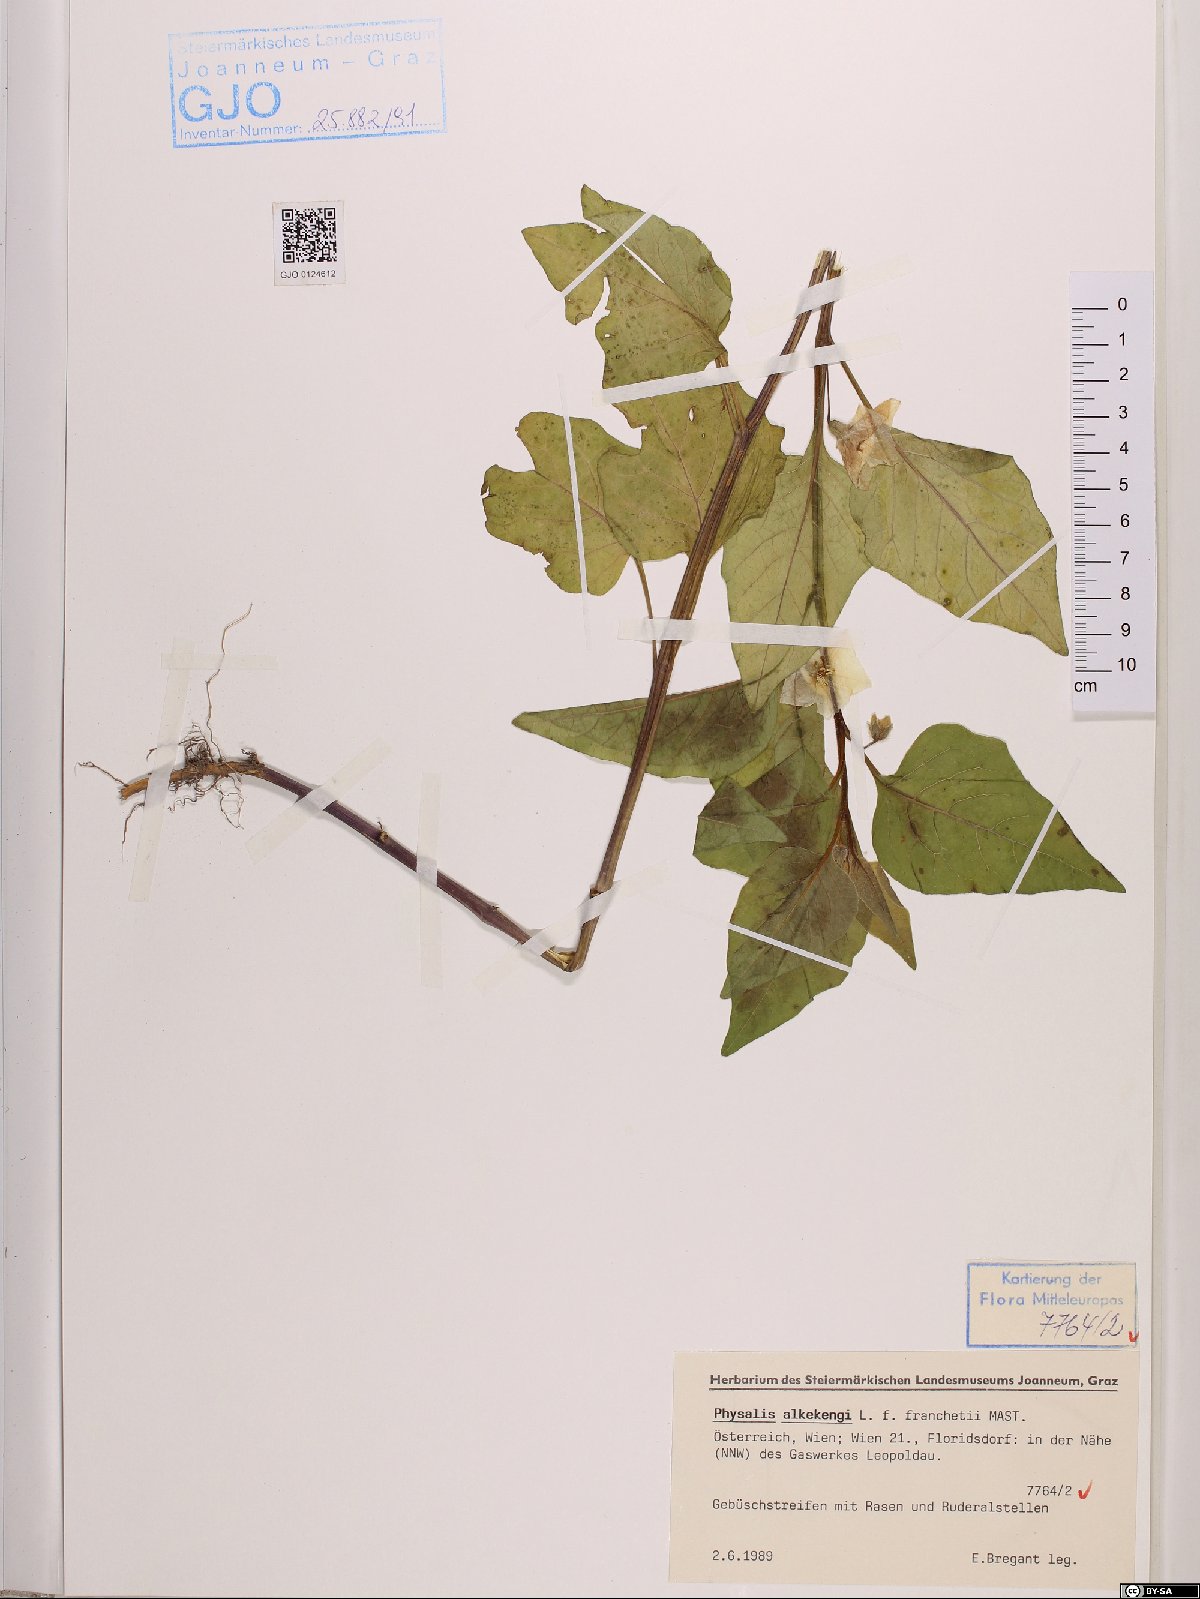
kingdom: Plantae
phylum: Tracheophyta
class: Magnoliopsida
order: Solanales
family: Solanaceae
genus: Alkekengi
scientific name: Alkekengi officinarum
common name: Japanese-lantern
